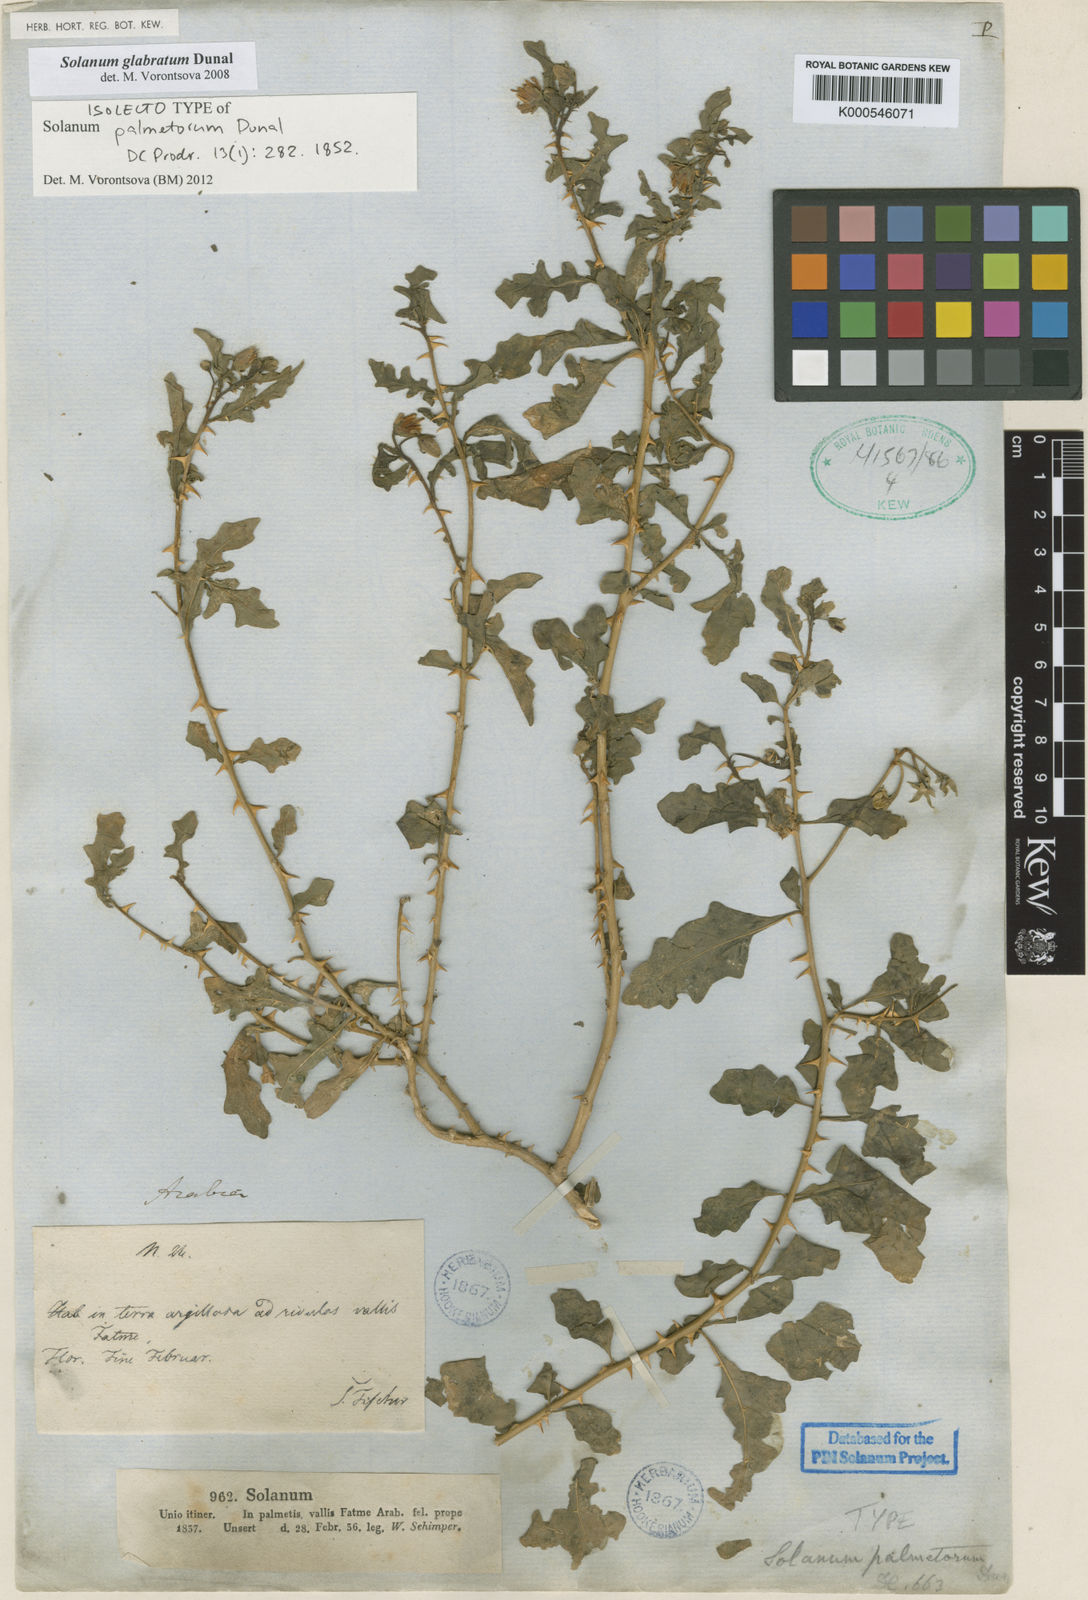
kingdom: Plantae
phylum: Tracheophyta
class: Magnoliopsida
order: Solanales
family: Solanaceae
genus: Solanum
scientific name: Solanum glabratum
